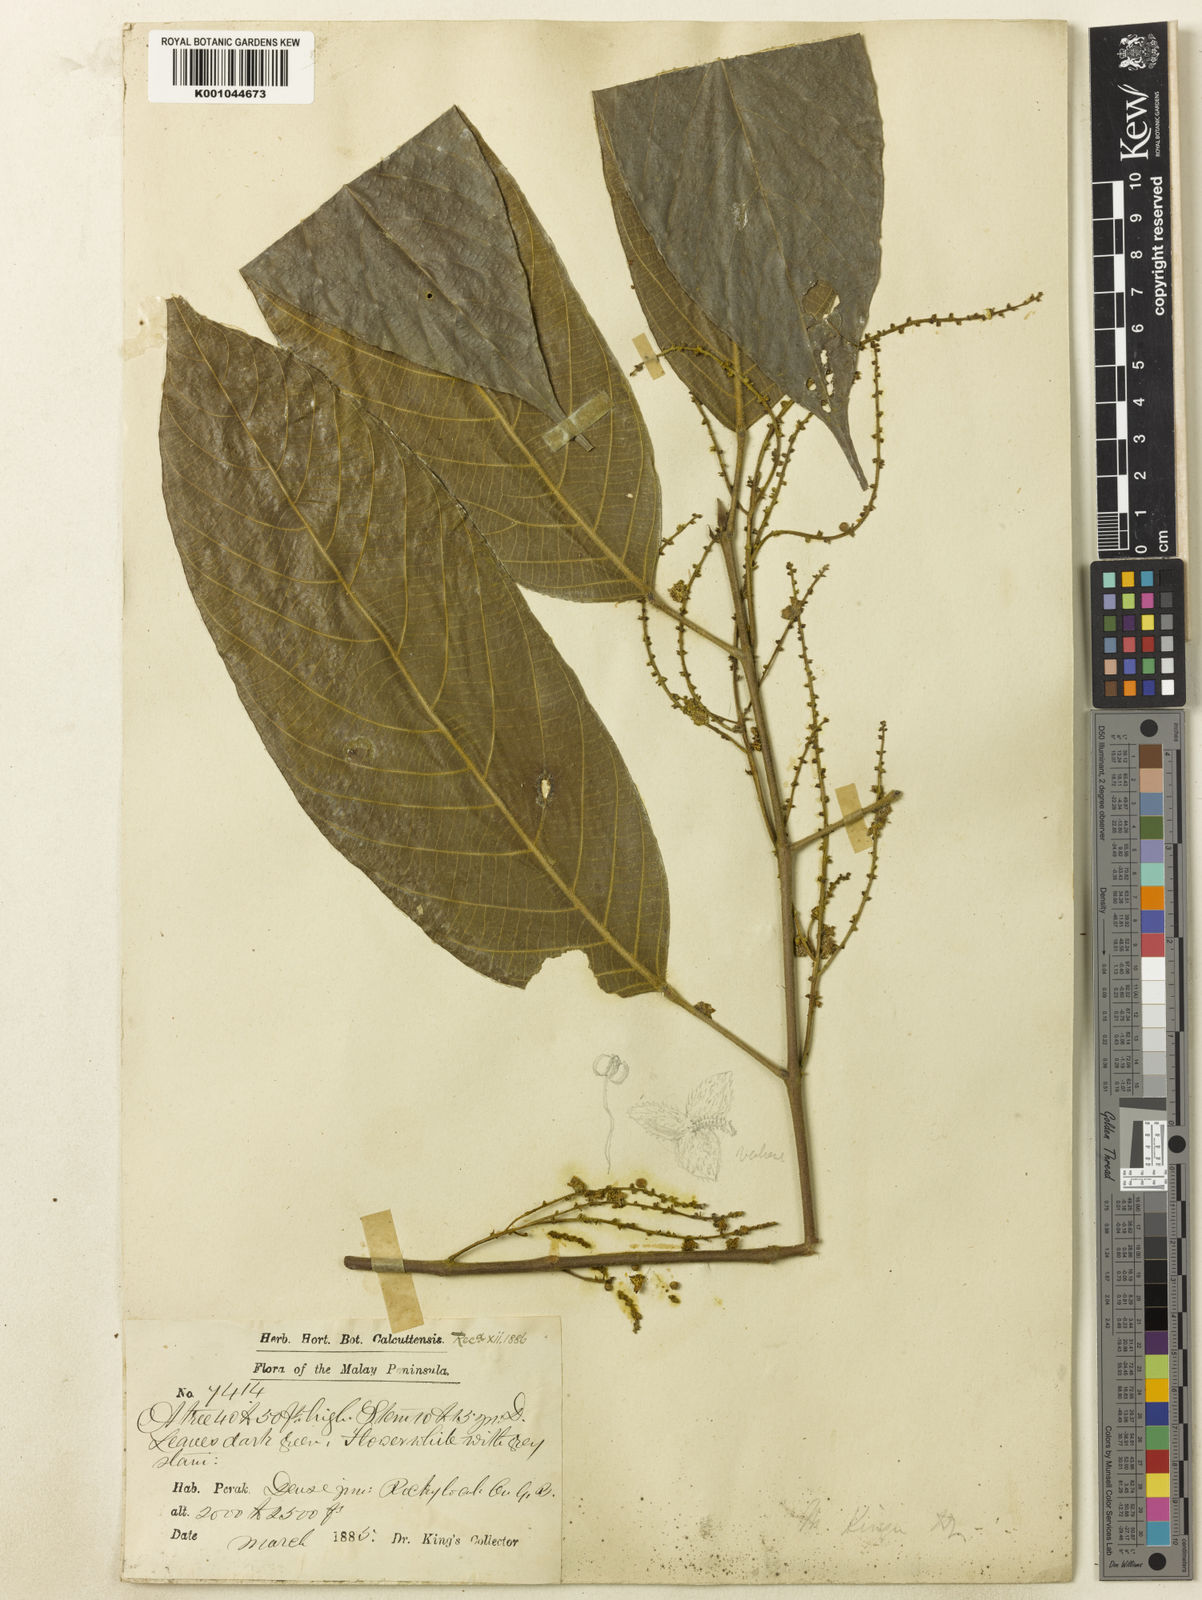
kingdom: Plantae
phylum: Tracheophyta
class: Magnoliopsida
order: Malpighiales
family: Euphorbiaceae
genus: Hancea
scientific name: Hancea kingii
